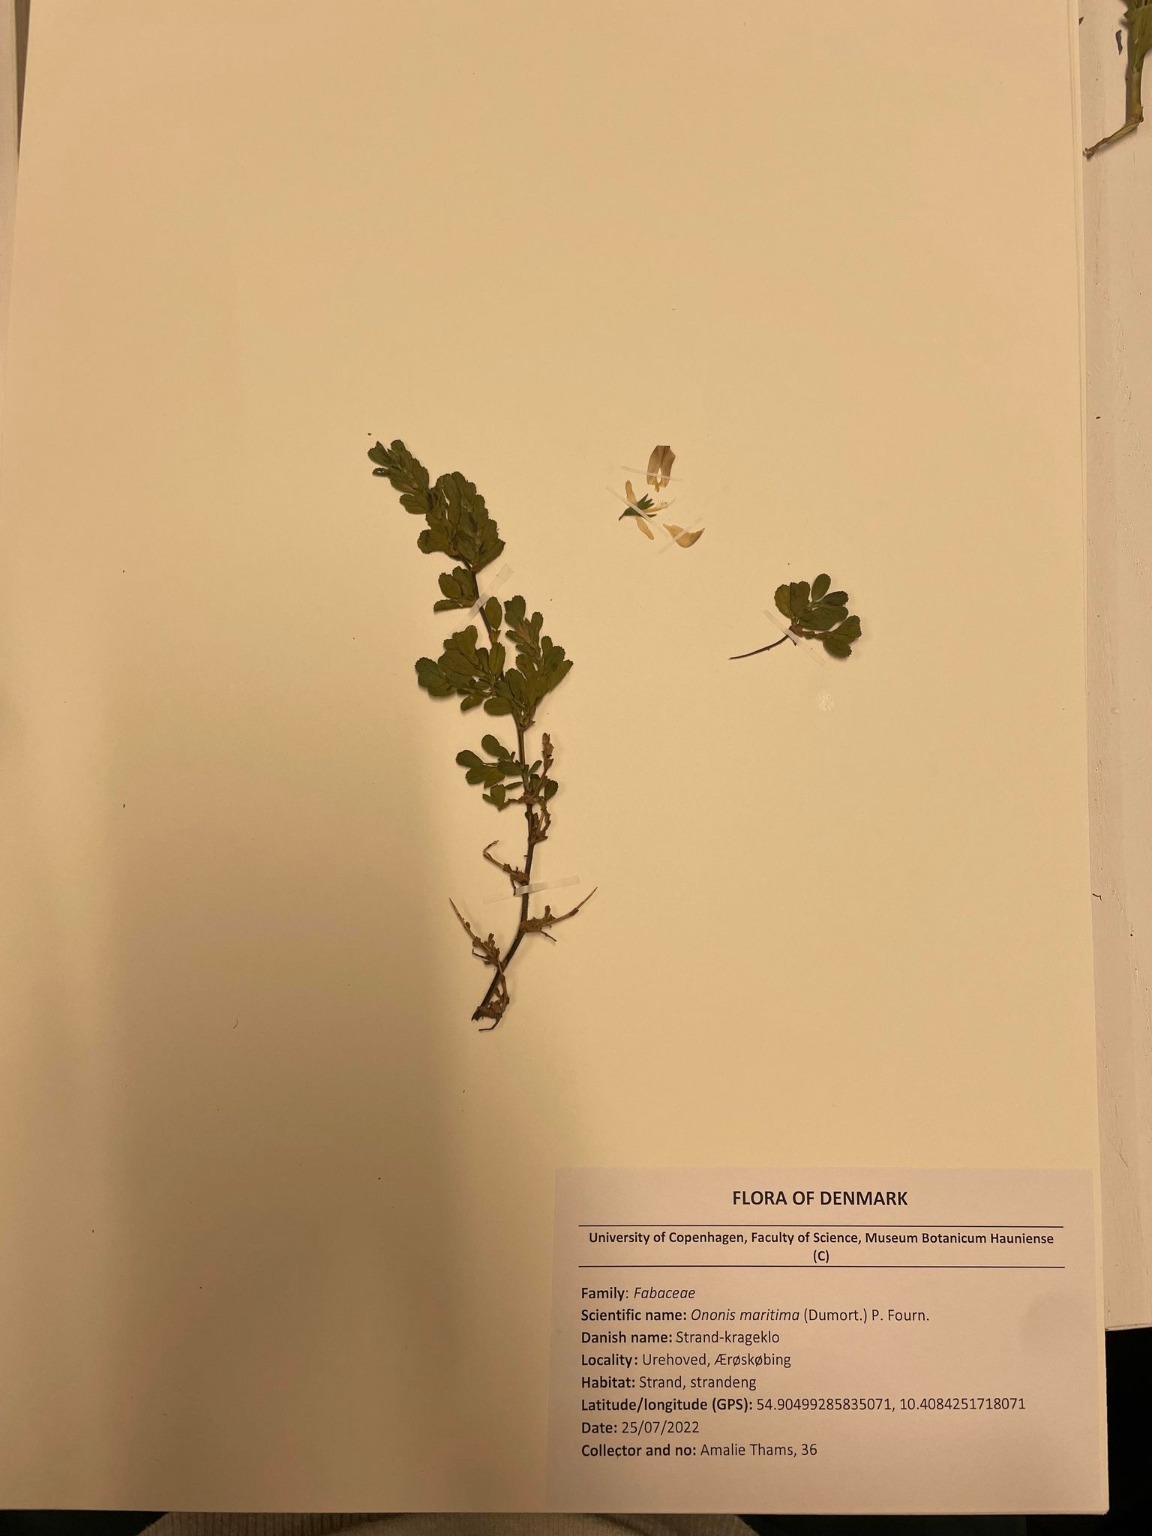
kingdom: Plantae
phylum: Tracheophyta
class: Magnoliopsida
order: Fabales
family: Fabaceae
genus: Ononis
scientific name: Ononis spinosa
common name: Mark-krageklo
